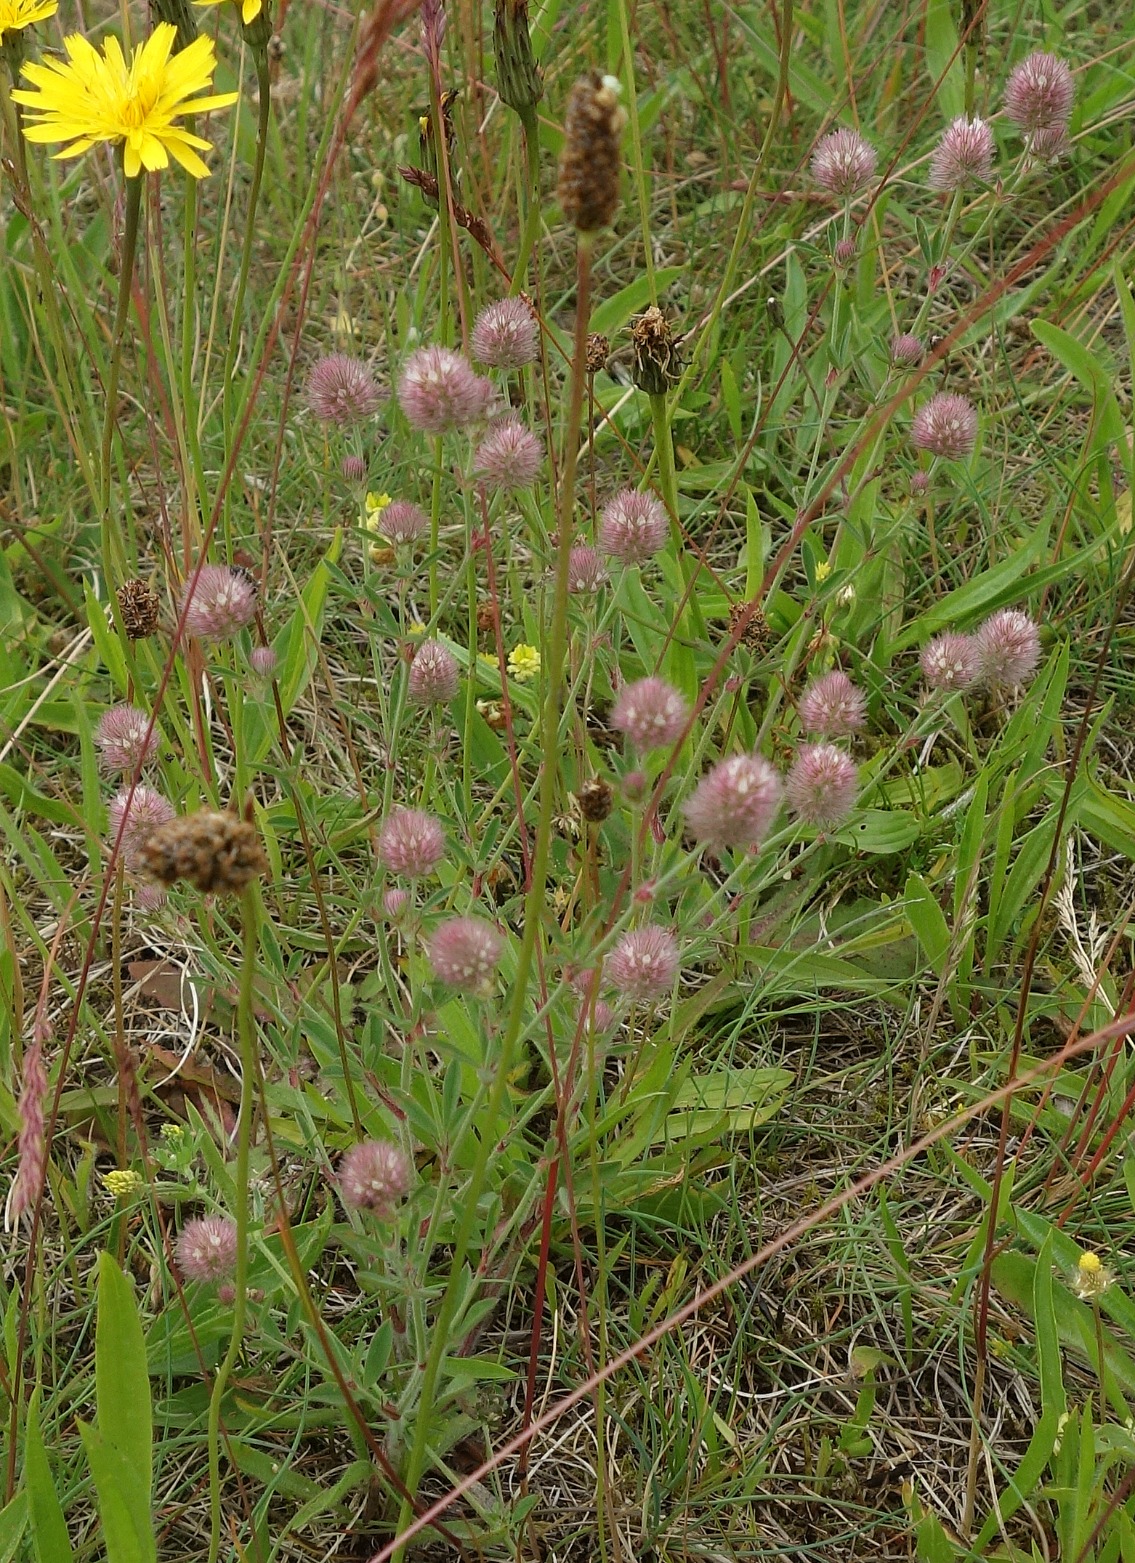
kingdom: Plantae
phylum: Tracheophyta
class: Magnoliopsida
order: Fabales
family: Fabaceae
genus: Trifolium
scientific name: Trifolium arvense
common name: Hare-kløver
